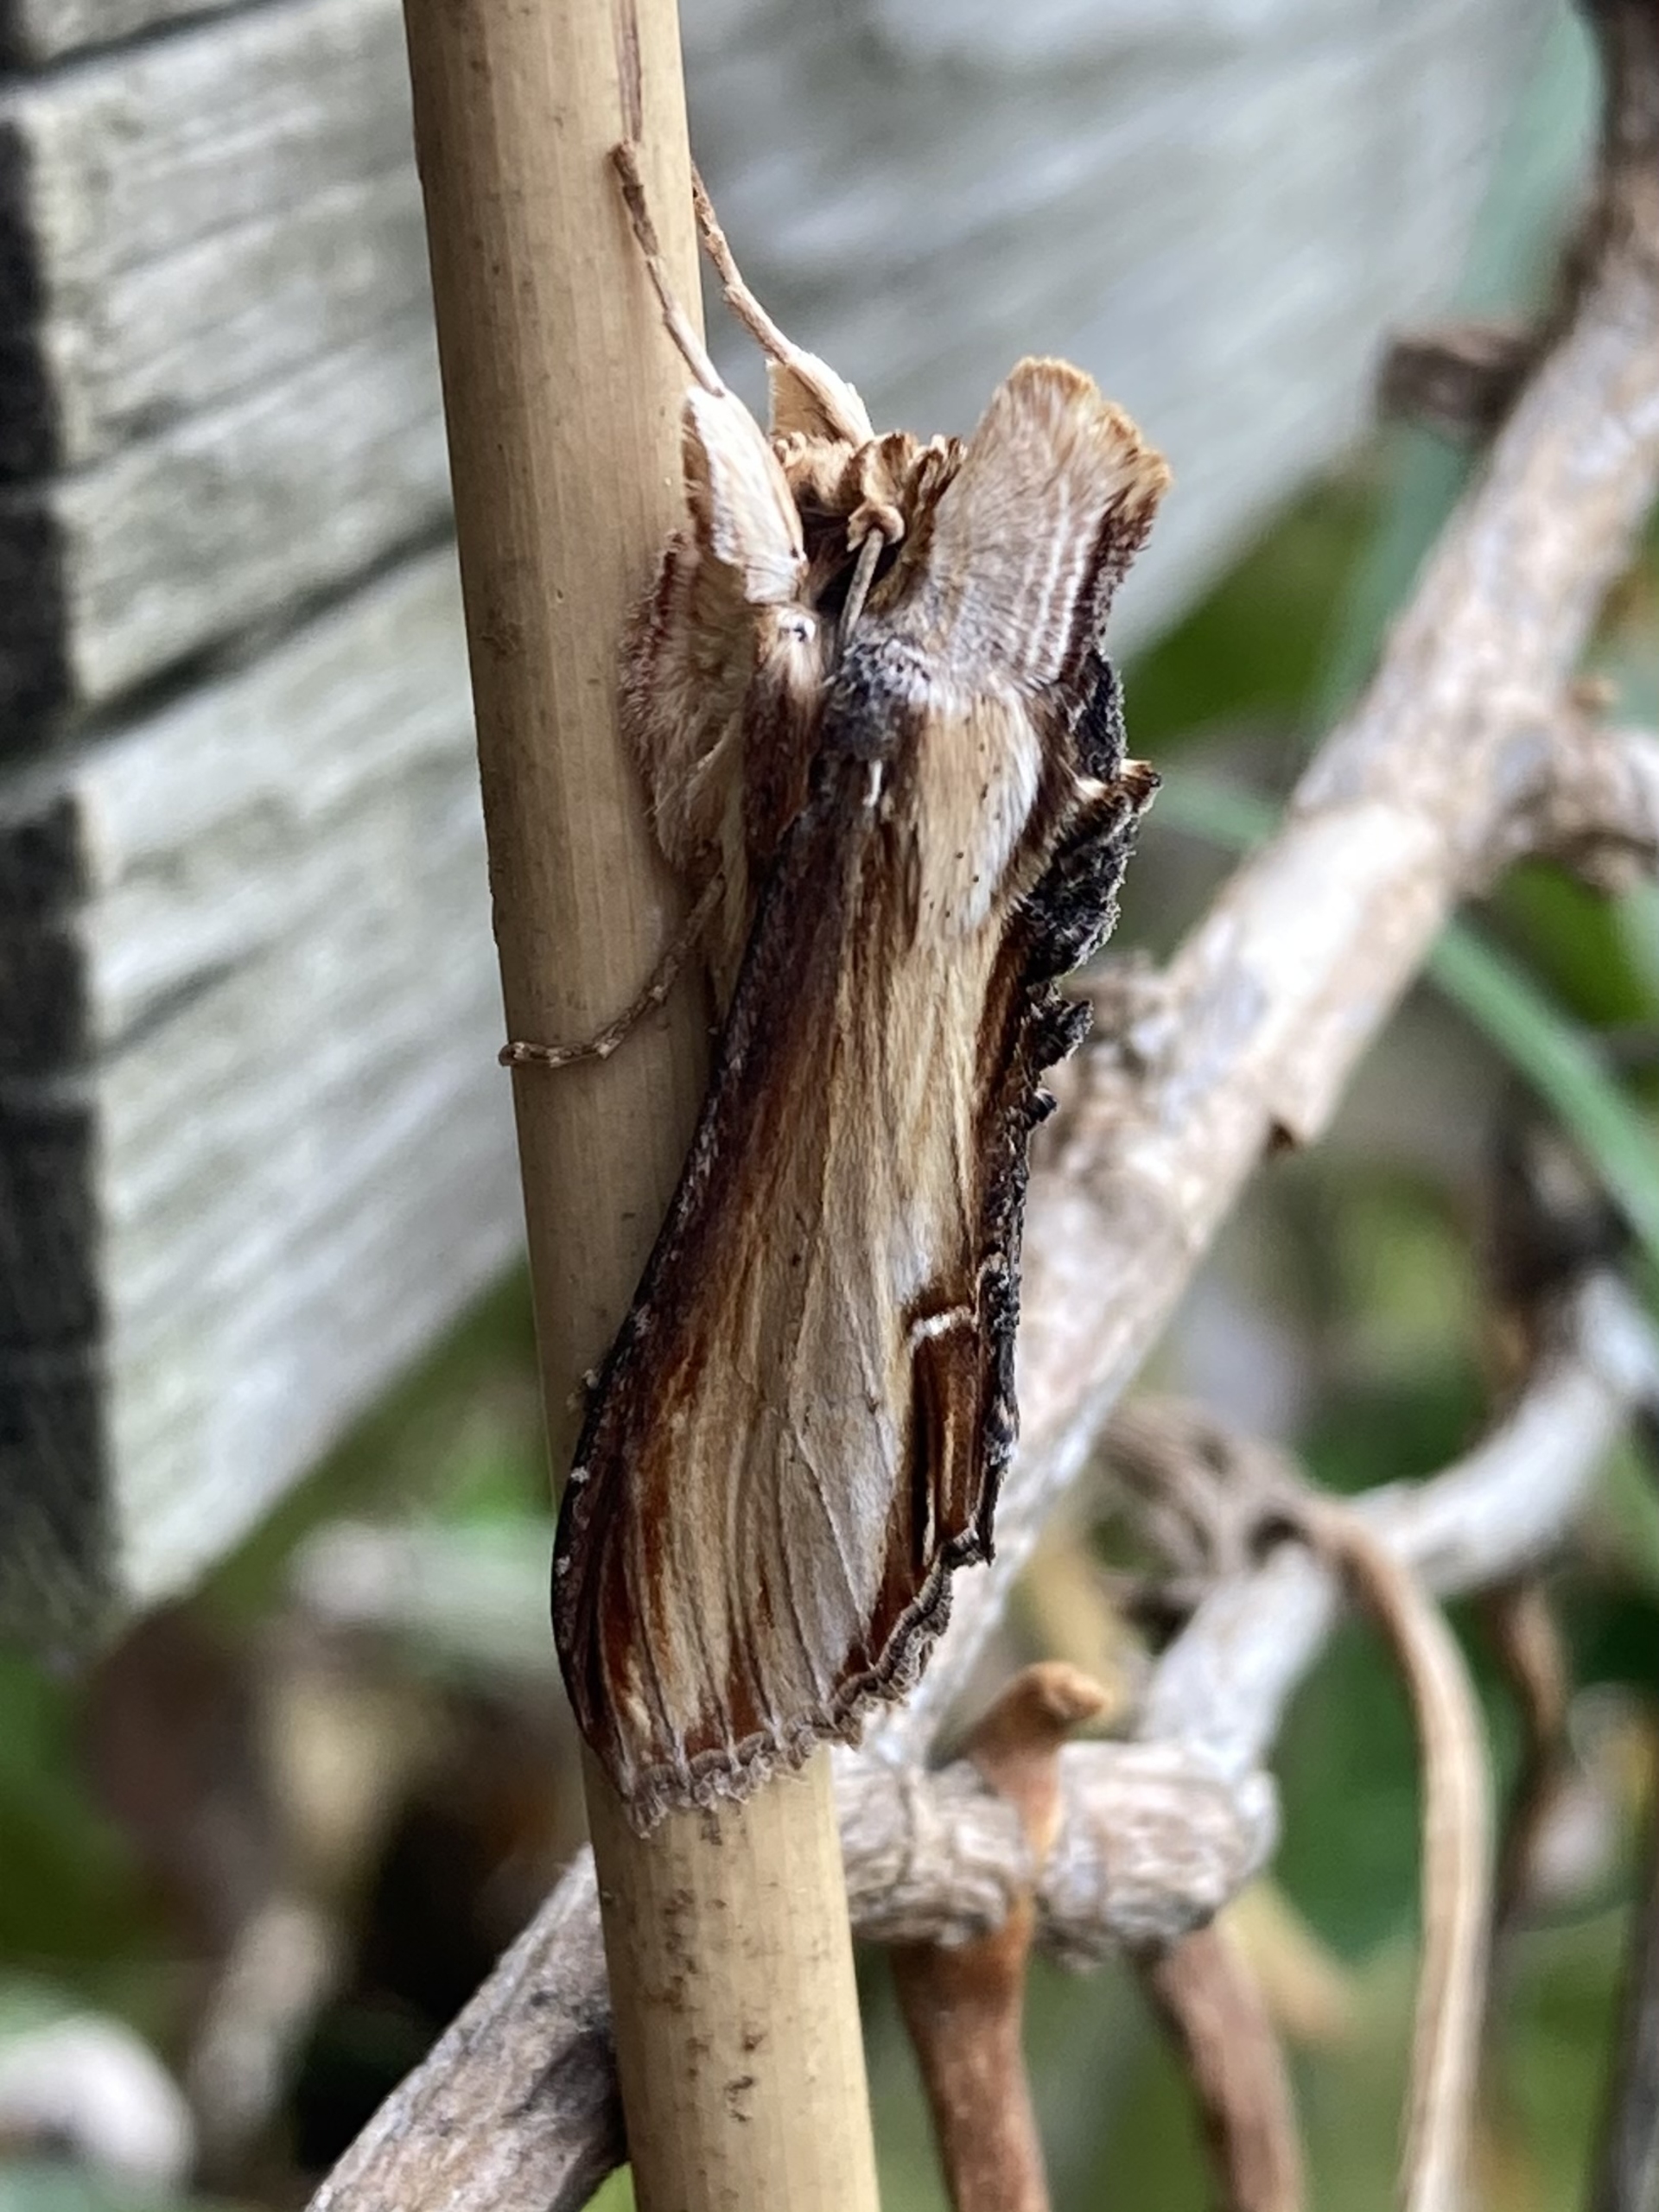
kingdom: Animalia
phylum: Arthropoda
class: Insecta
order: Lepidoptera
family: Noctuidae
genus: Cucullia
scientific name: Cucullia verbasci
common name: Filtbladet kongelys-hætteugle
